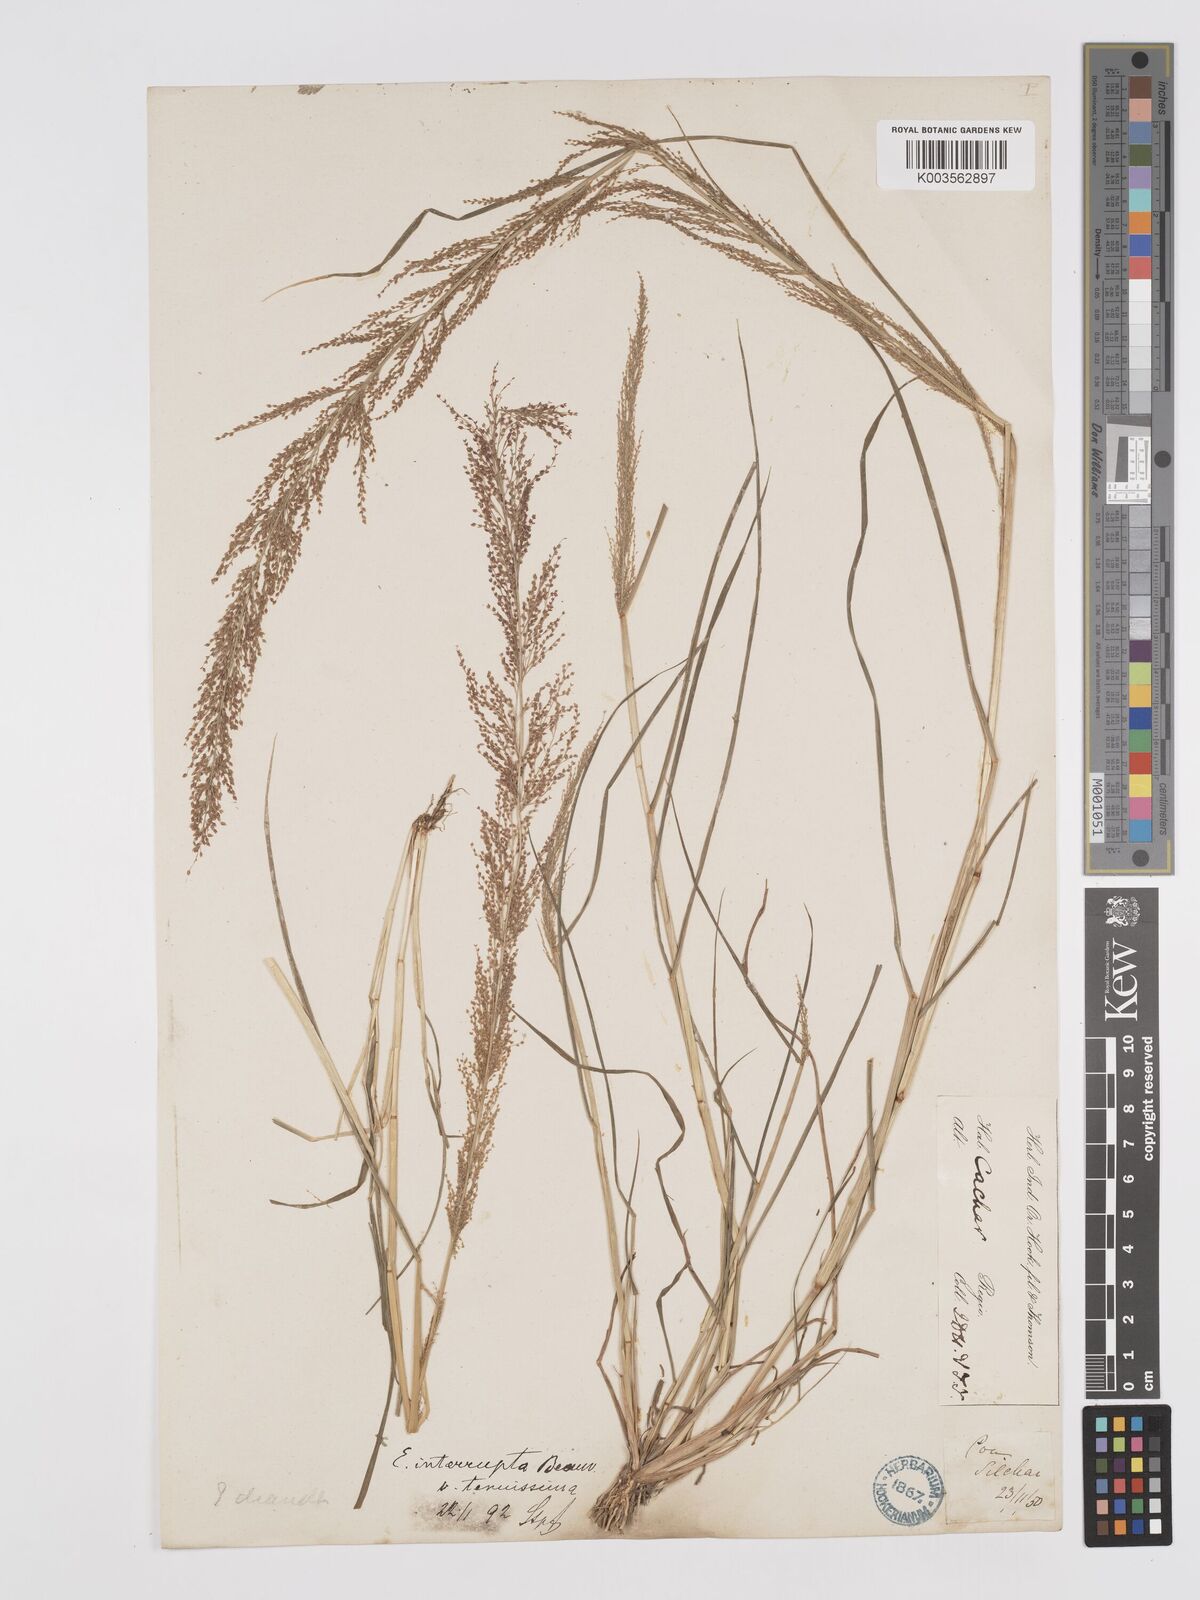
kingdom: Plantae
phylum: Tracheophyta
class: Liliopsida
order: Poales
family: Poaceae
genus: Eragrostis
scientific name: Eragrostis japonica
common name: Pond lovegrass
